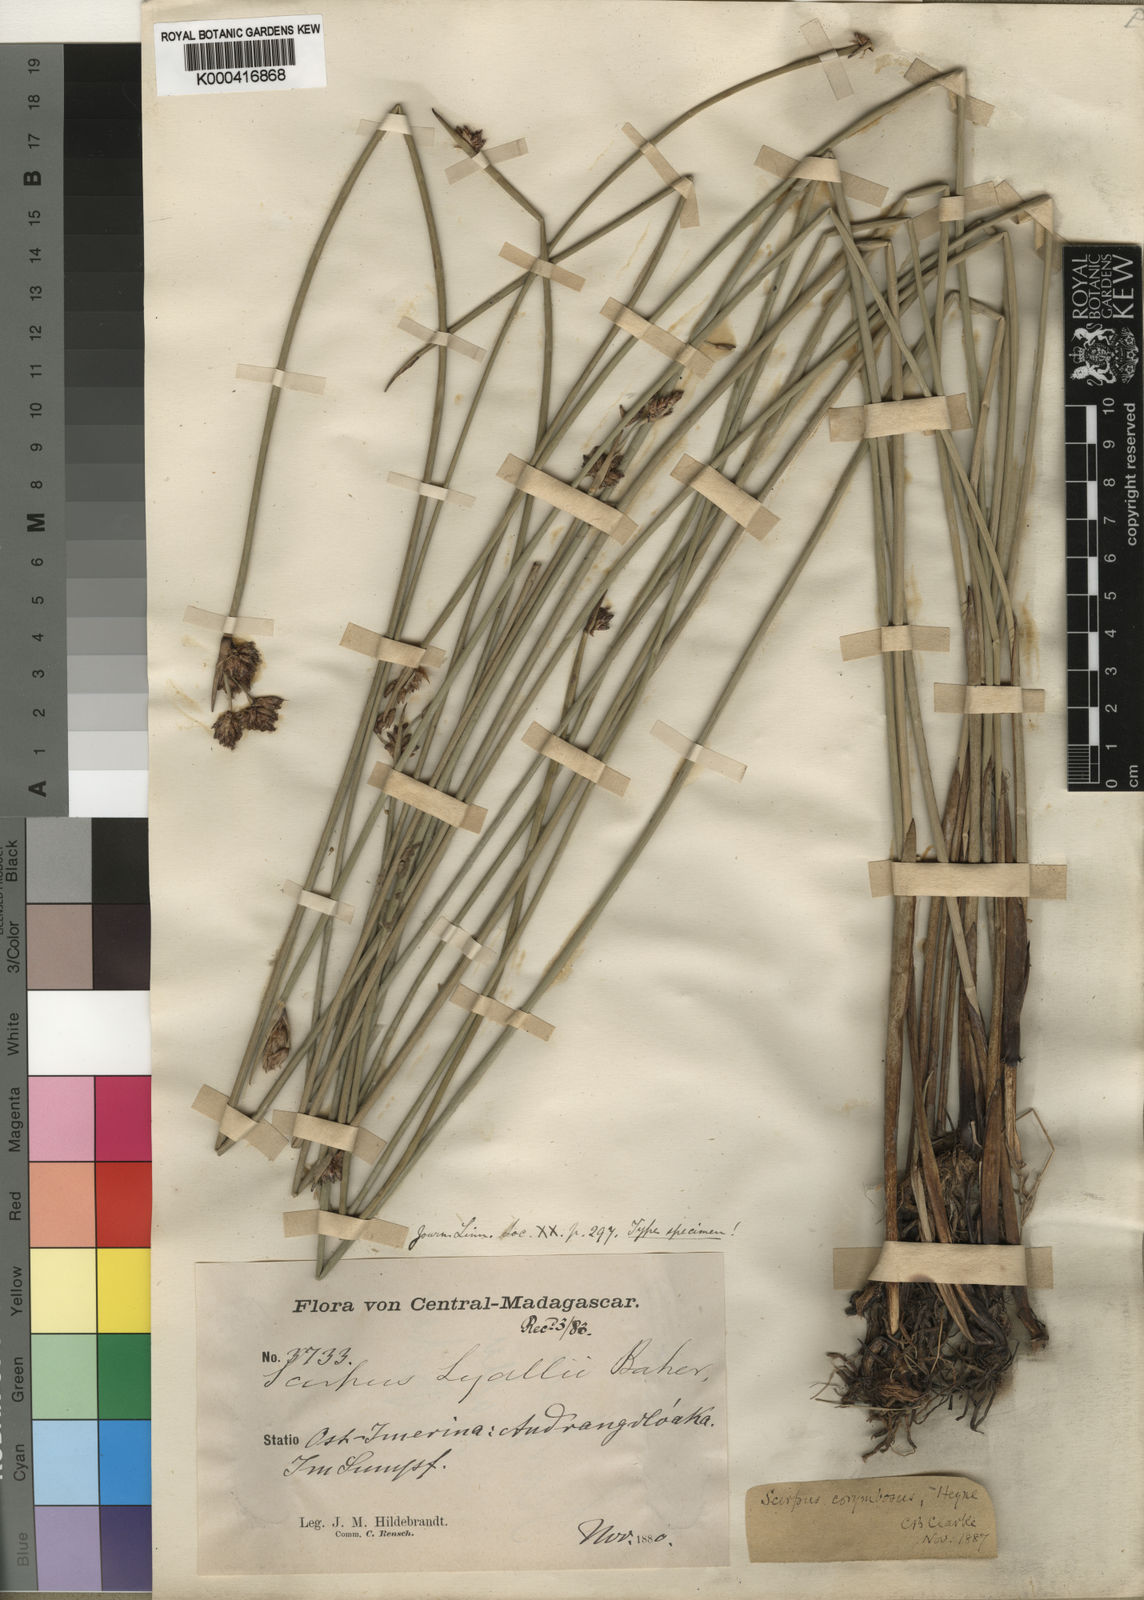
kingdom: Plantae
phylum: Tracheophyta
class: Liliopsida
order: Poales
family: Cyperaceae
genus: Schoenoplectiella
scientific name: Schoenoplectiella corymbosa
